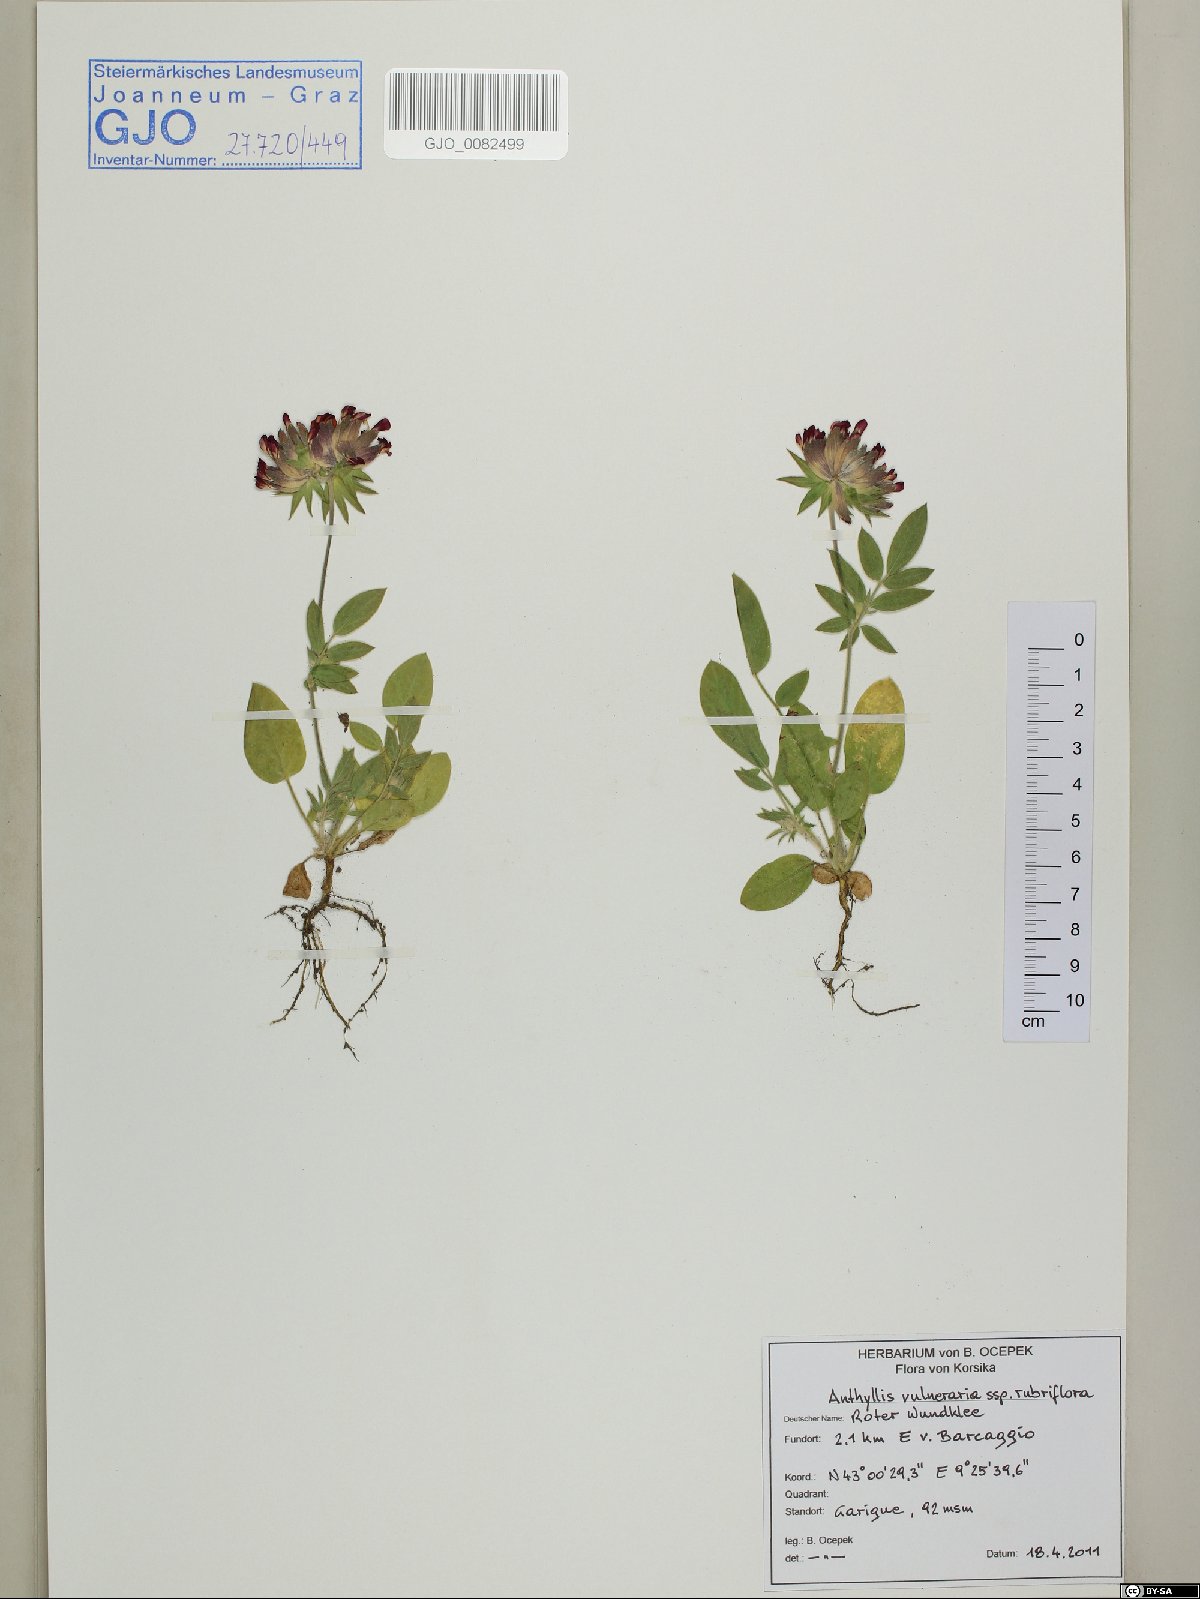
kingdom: Plantae
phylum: Tracheophyta
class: Magnoliopsida
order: Fabales
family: Fabaceae
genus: Anthyllis
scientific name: Anthyllis vulneraria
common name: Kidney vetch
